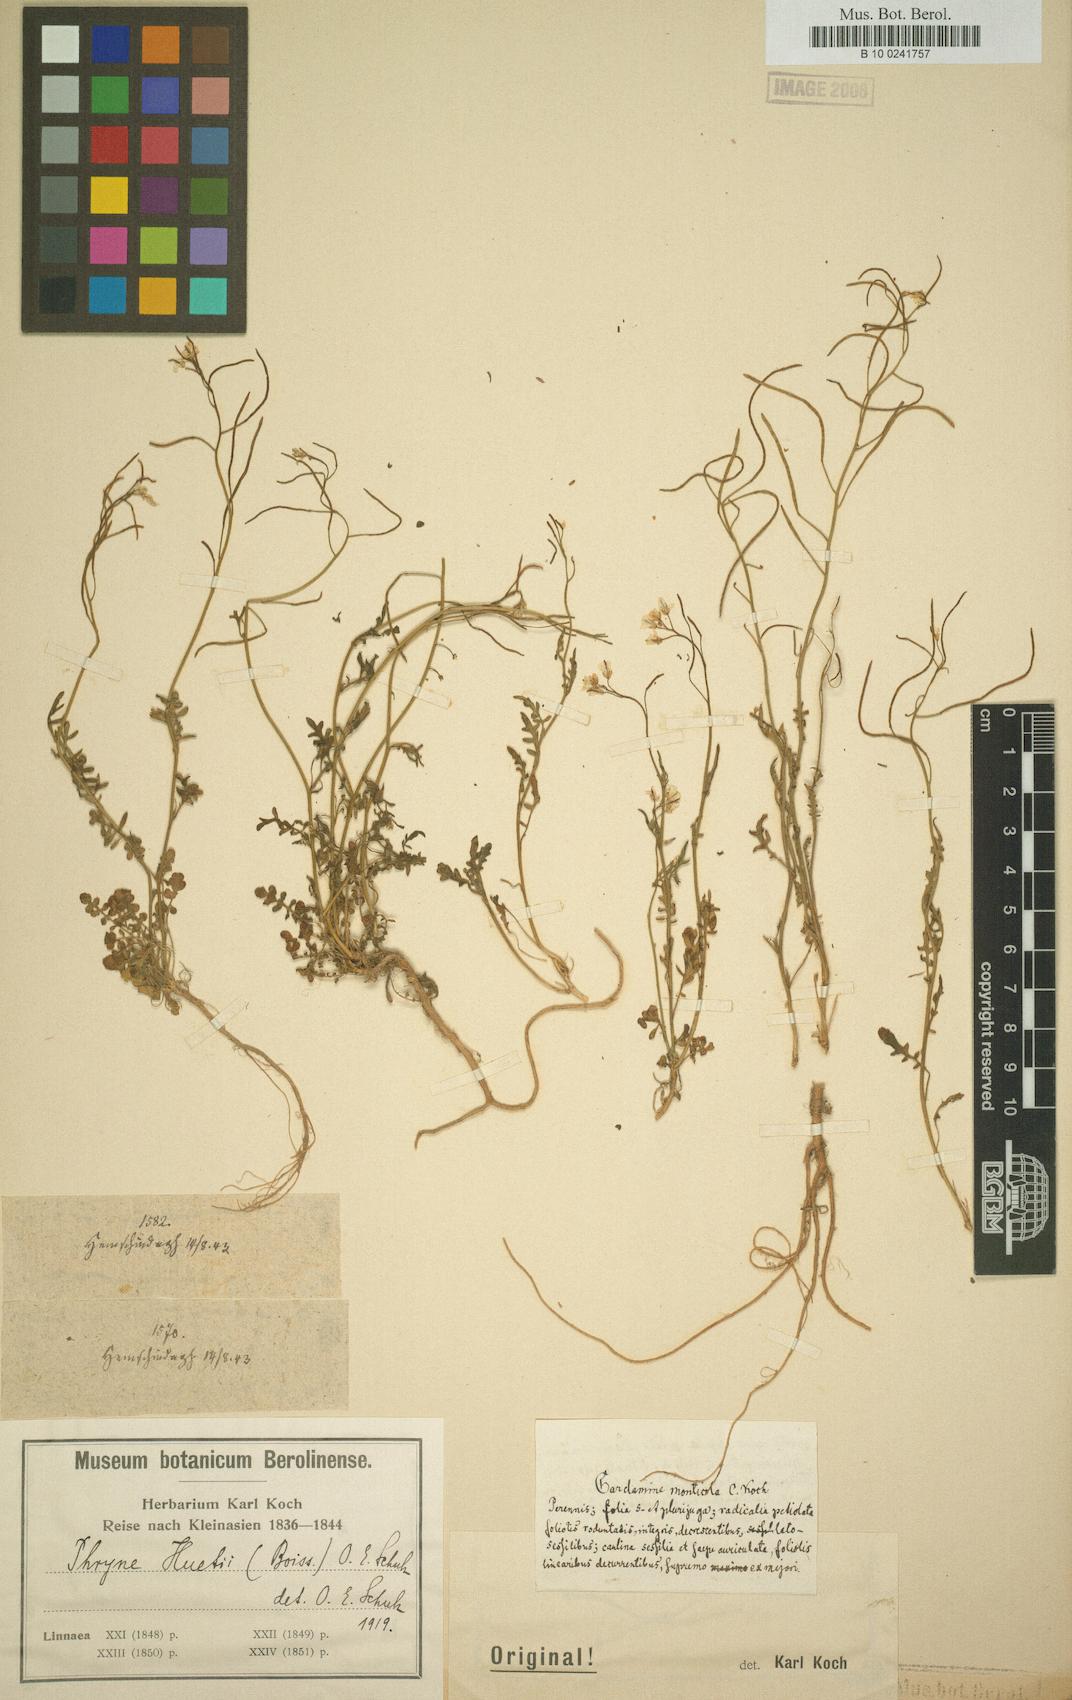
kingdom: Plantae
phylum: Tracheophyta
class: Magnoliopsida
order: Brassicales
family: Brassicaceae
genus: Murbeckiella
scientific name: Murbeckiella huetii
